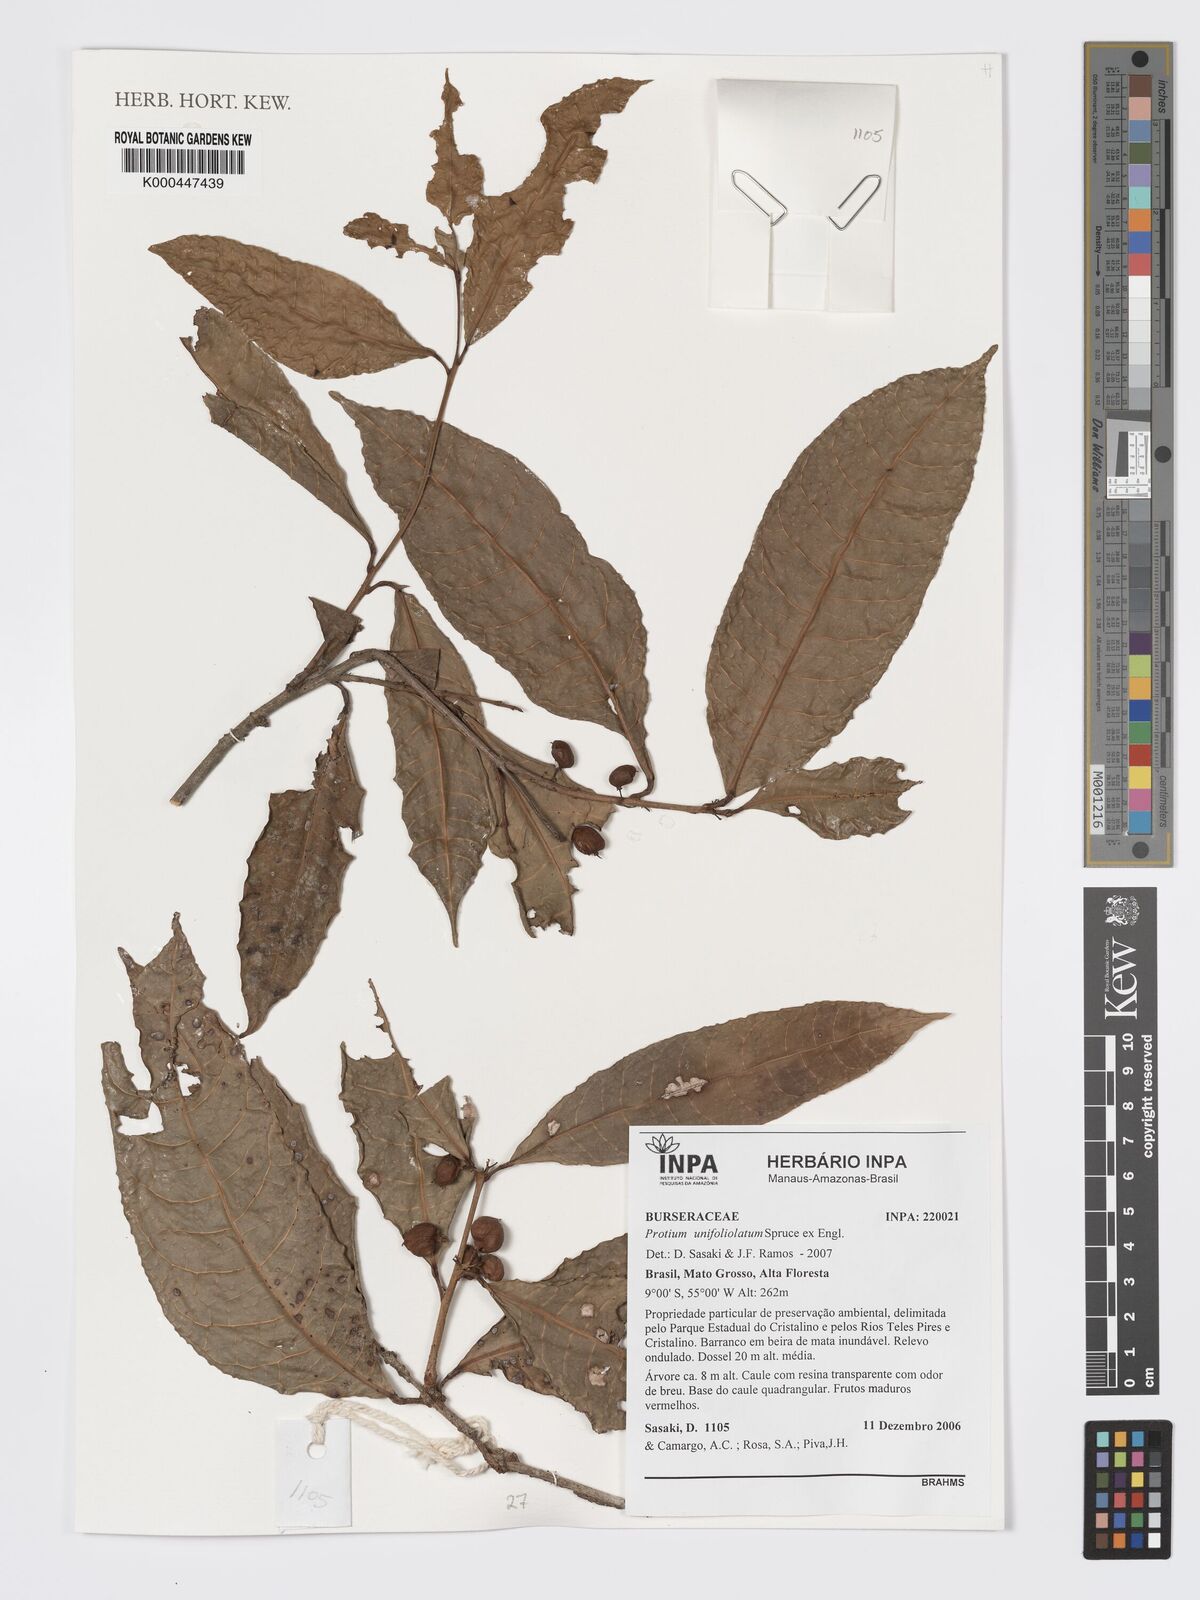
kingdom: Plantae
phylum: Tracheophyta
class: Magnoliopsida
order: Sapindales
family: Burseraceae
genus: Protium
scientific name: Protium unifoliolatum
